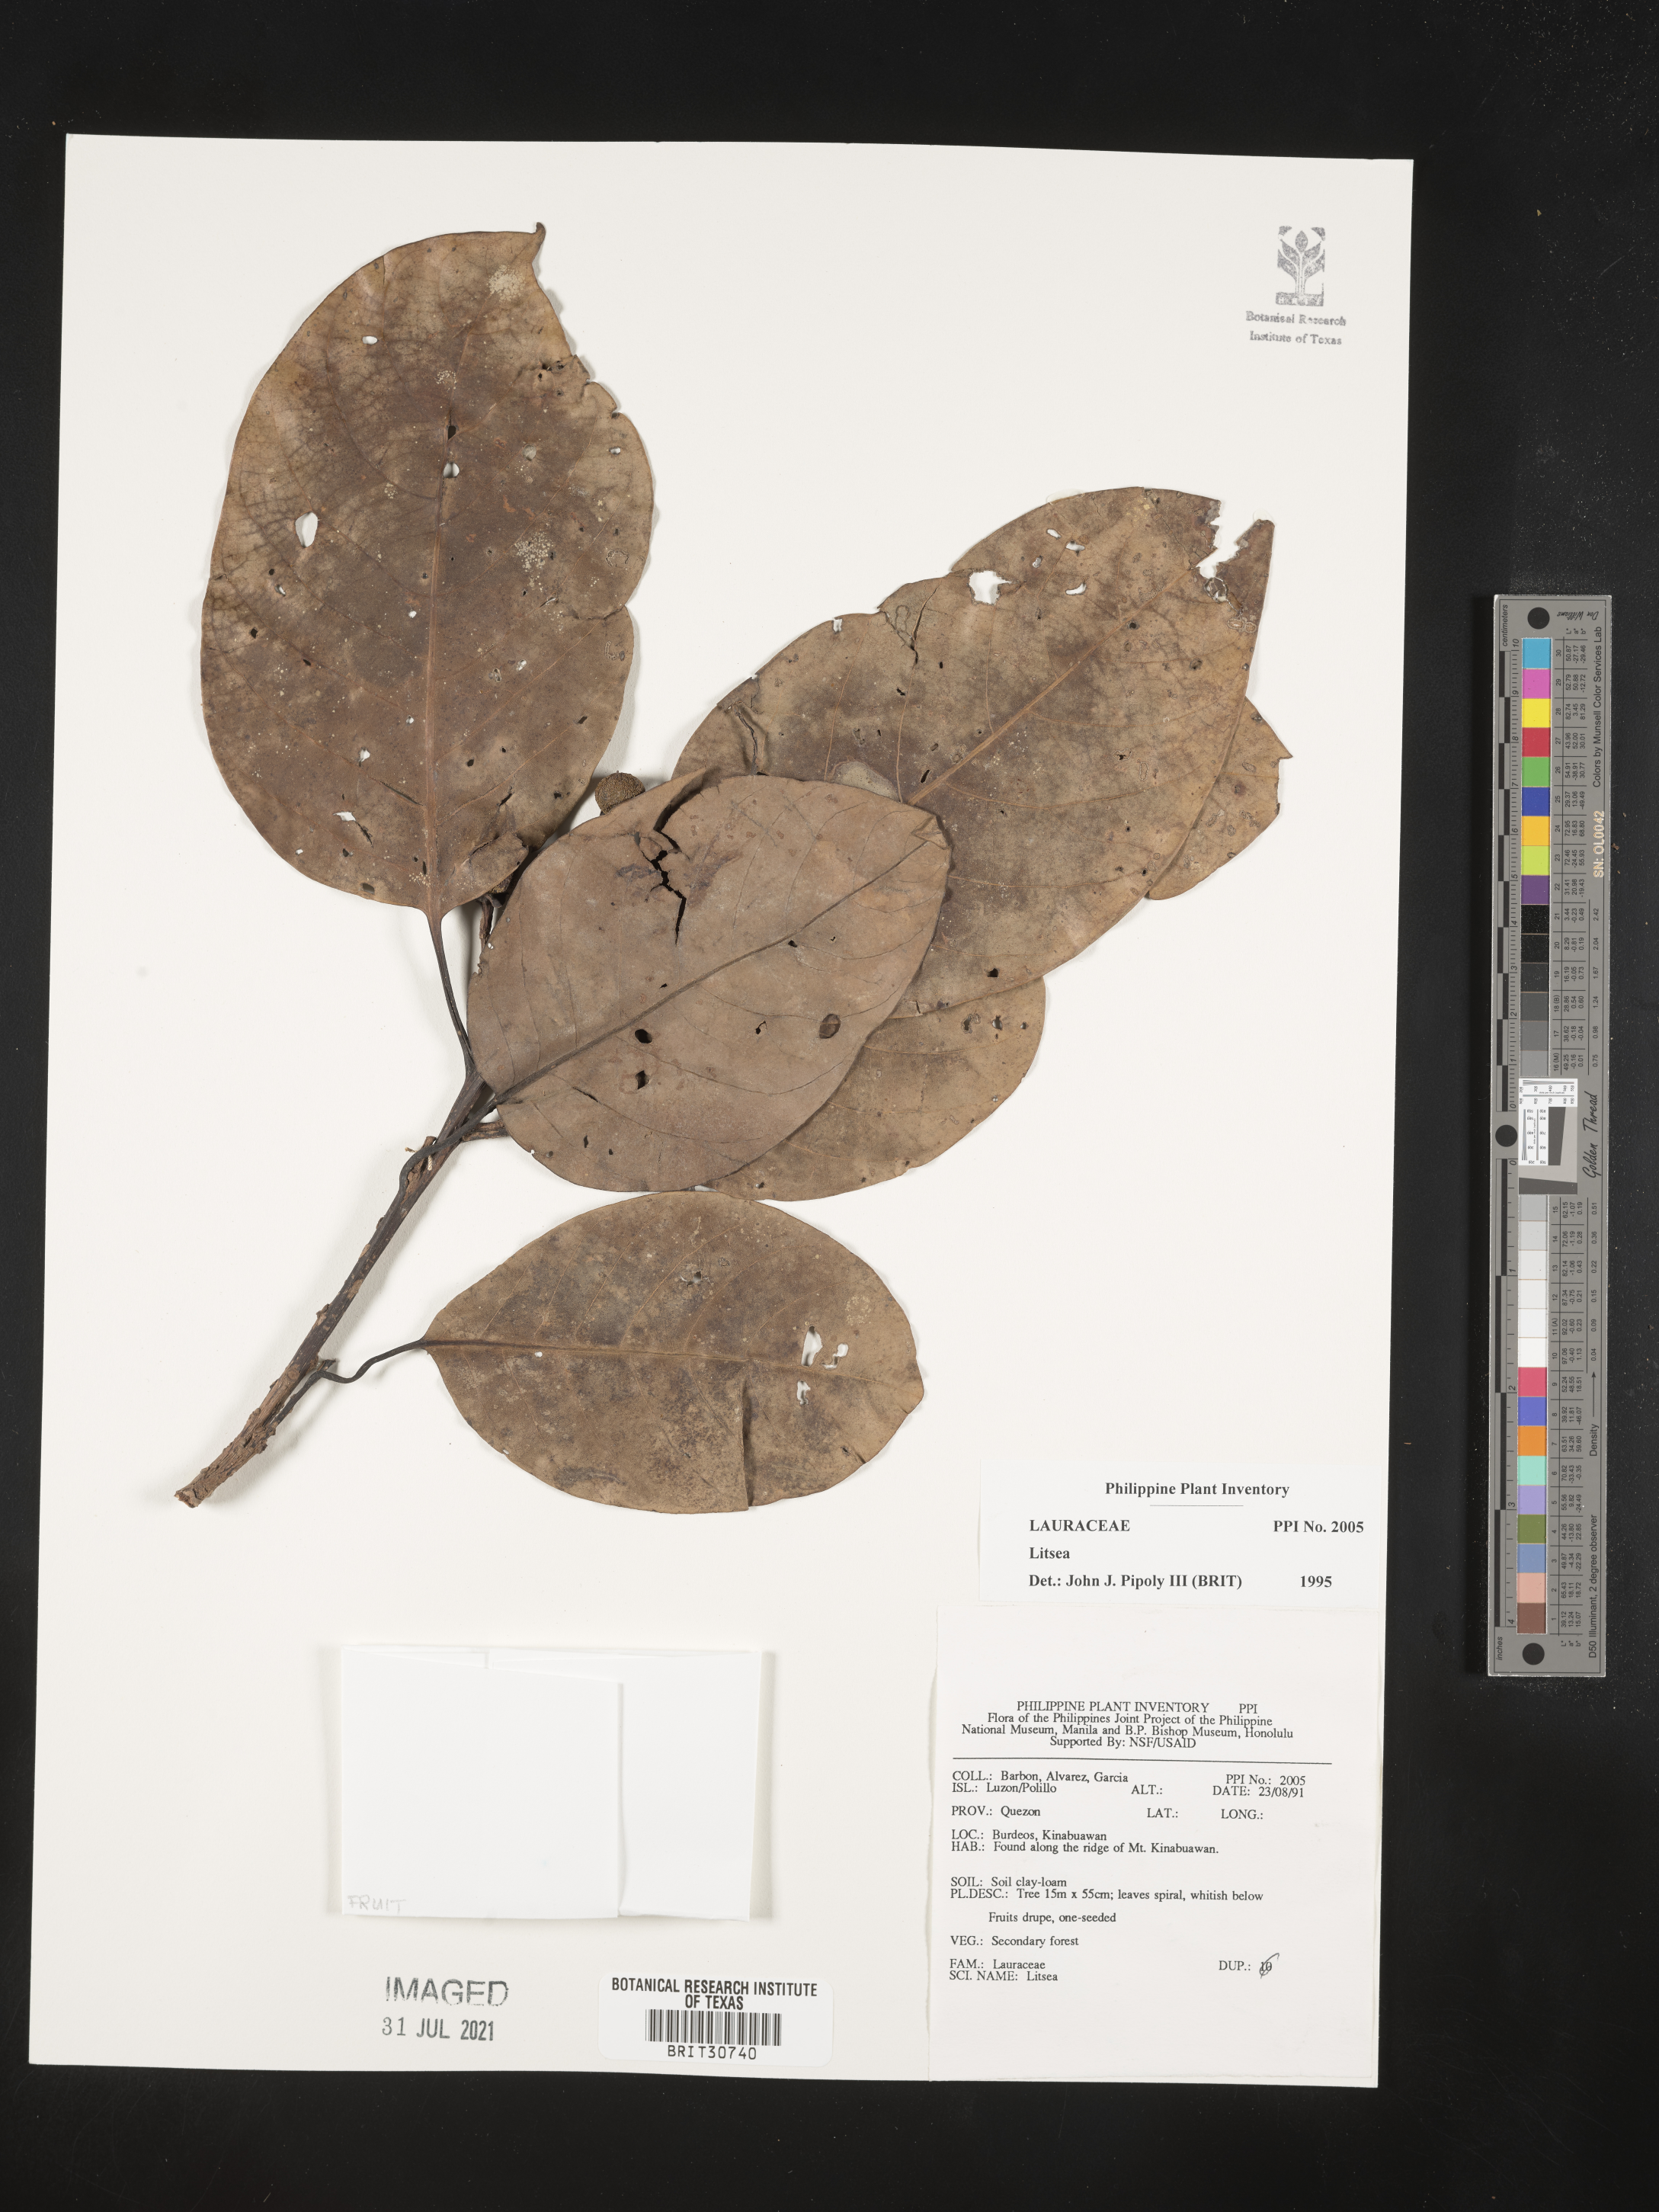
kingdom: Plantae
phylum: Tracheophyta
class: Magnoliopsida
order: Laurales
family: Lauraceae
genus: Litsea
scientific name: Litsea
